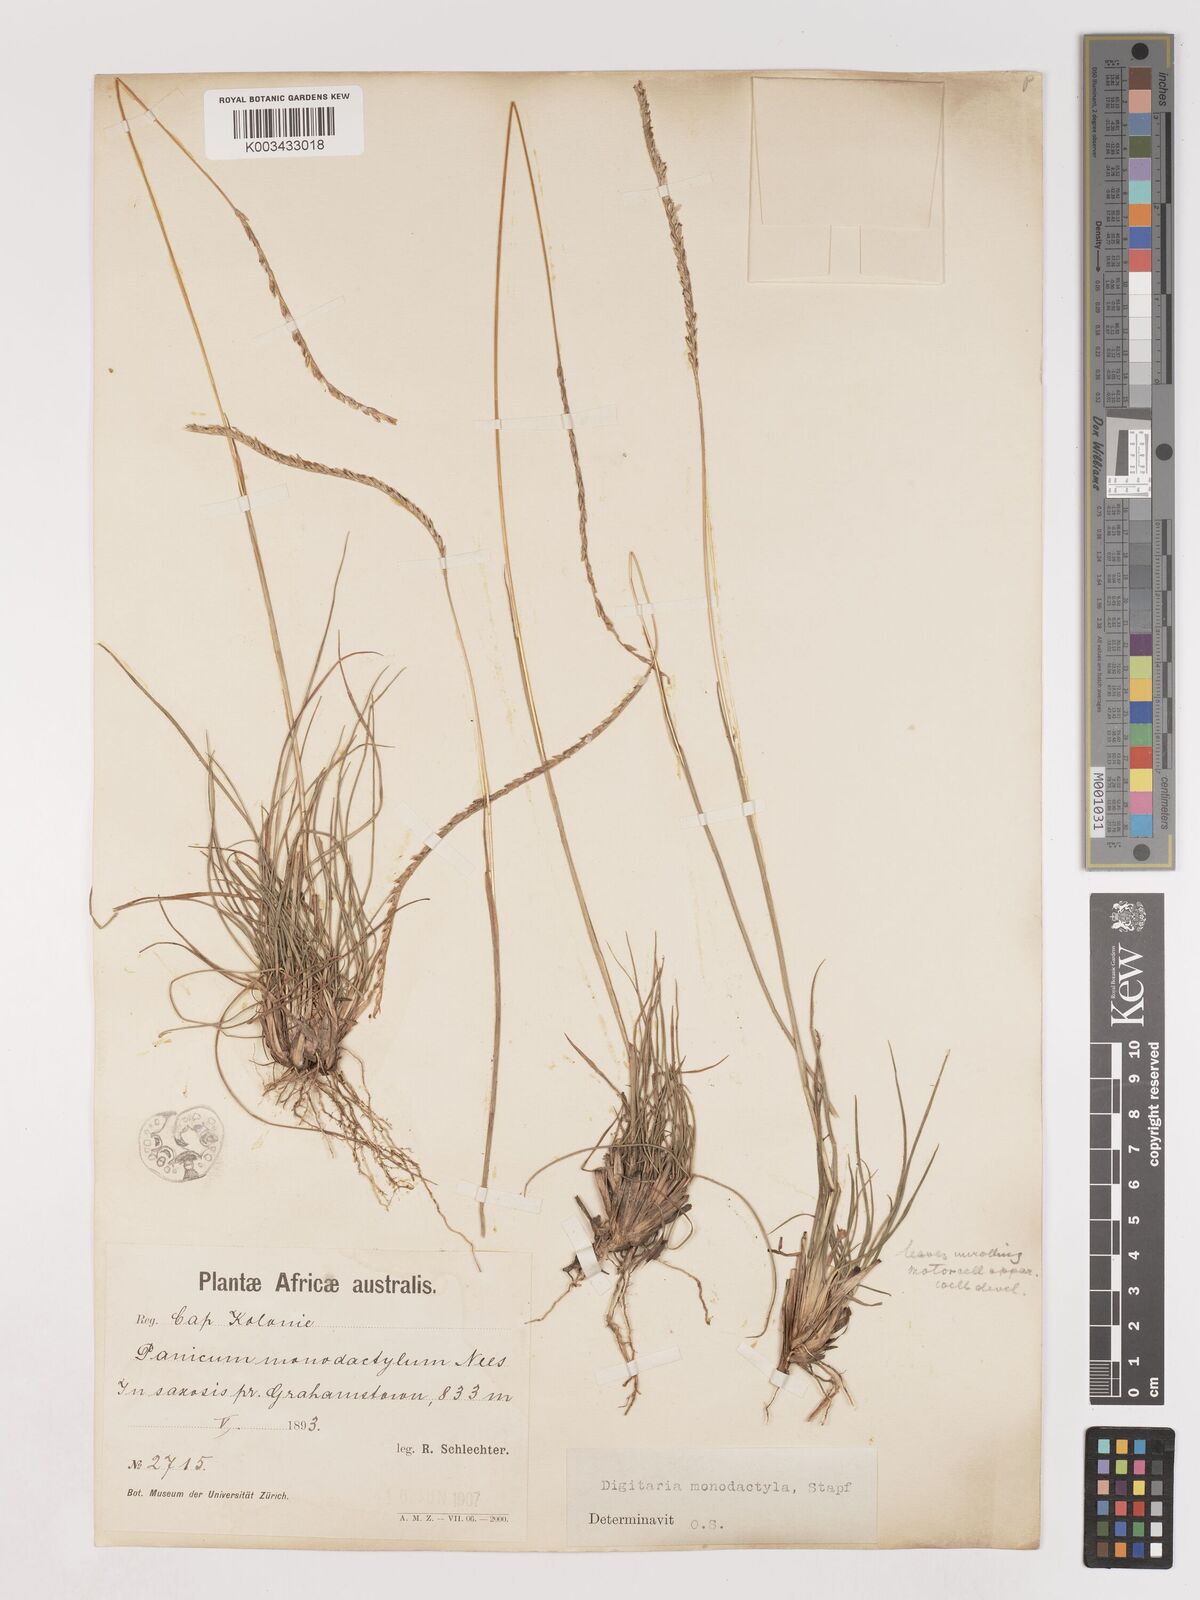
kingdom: Plantae
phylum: Tracheophyta
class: Liliopsida
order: Poales
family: Poaceae
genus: Digitaria
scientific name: Digitaria monodactyla
